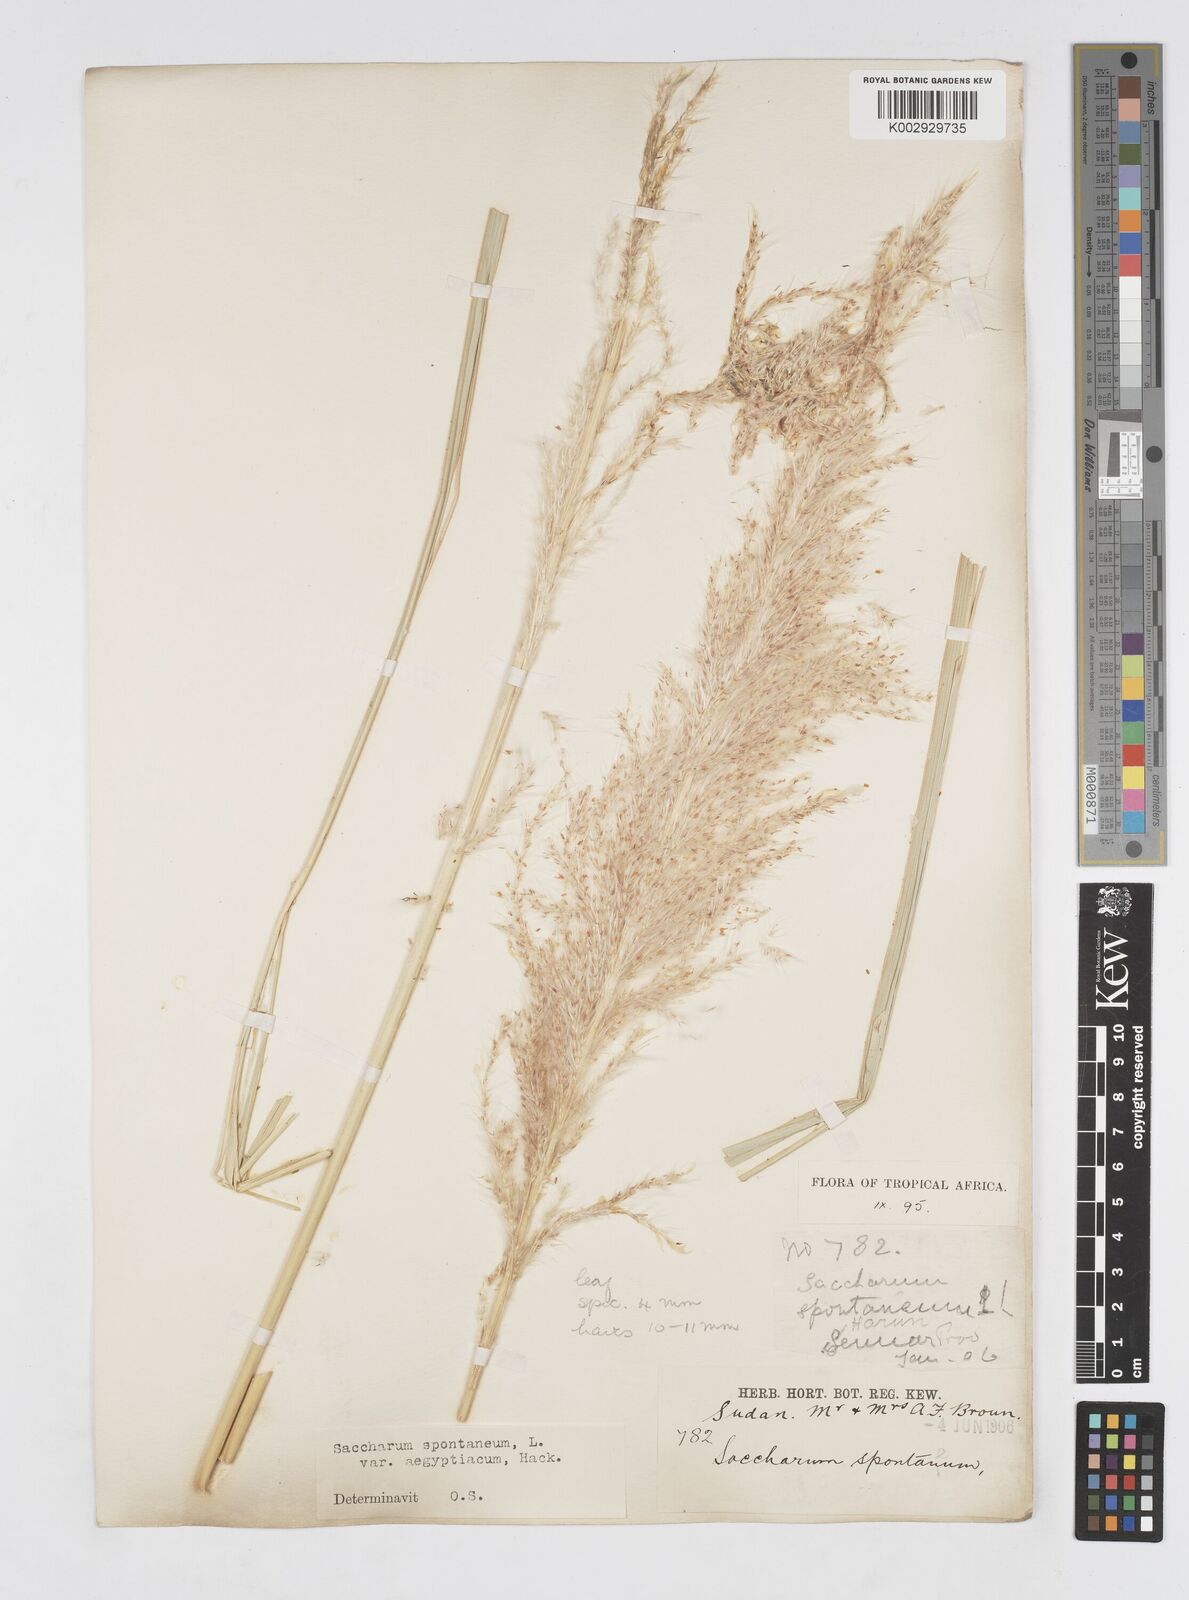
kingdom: Plantae
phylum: Tracheophyta
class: Liliopsida
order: Poales
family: Poaceae
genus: Saccharum
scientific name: Saccharum spontaneum
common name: Wild sugarcane
